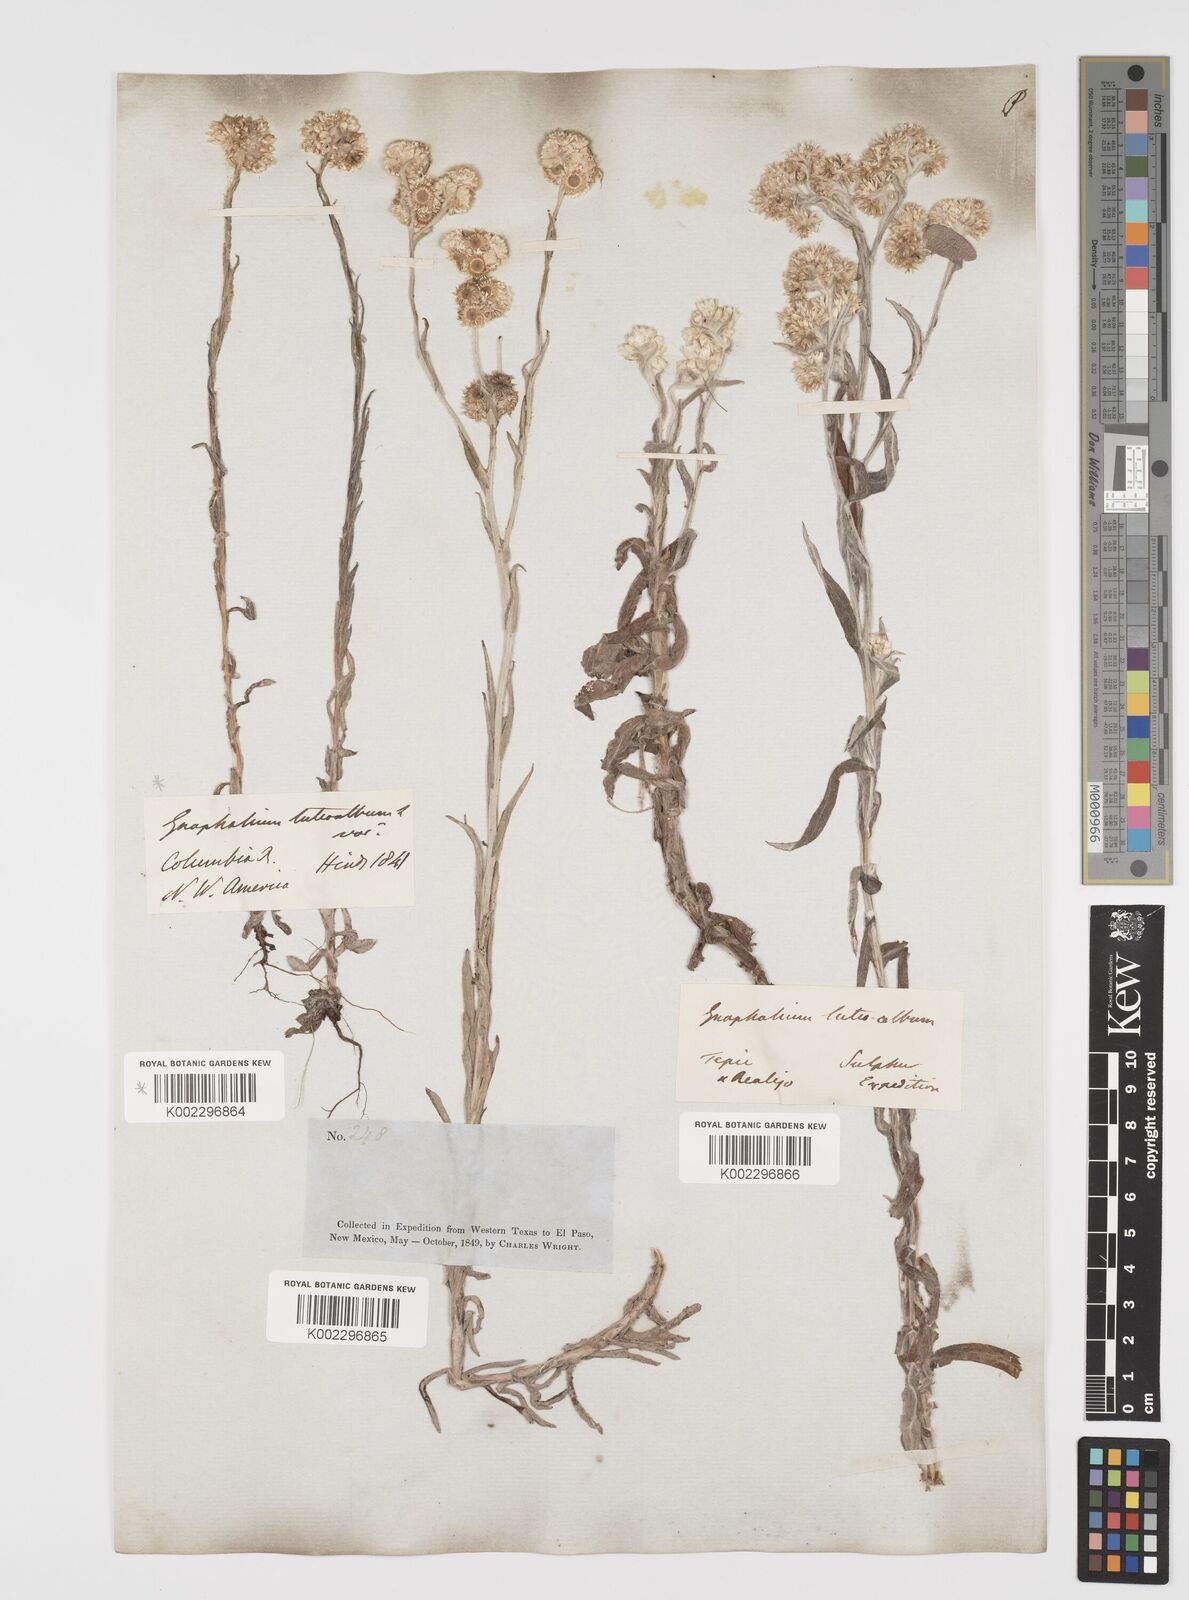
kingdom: Plantae
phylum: Tracheophyta
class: Magnoliopsida
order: Asterales
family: Asteraceae
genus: Helichrysum
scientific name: Helichrysum luteoalbum
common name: Daisy
